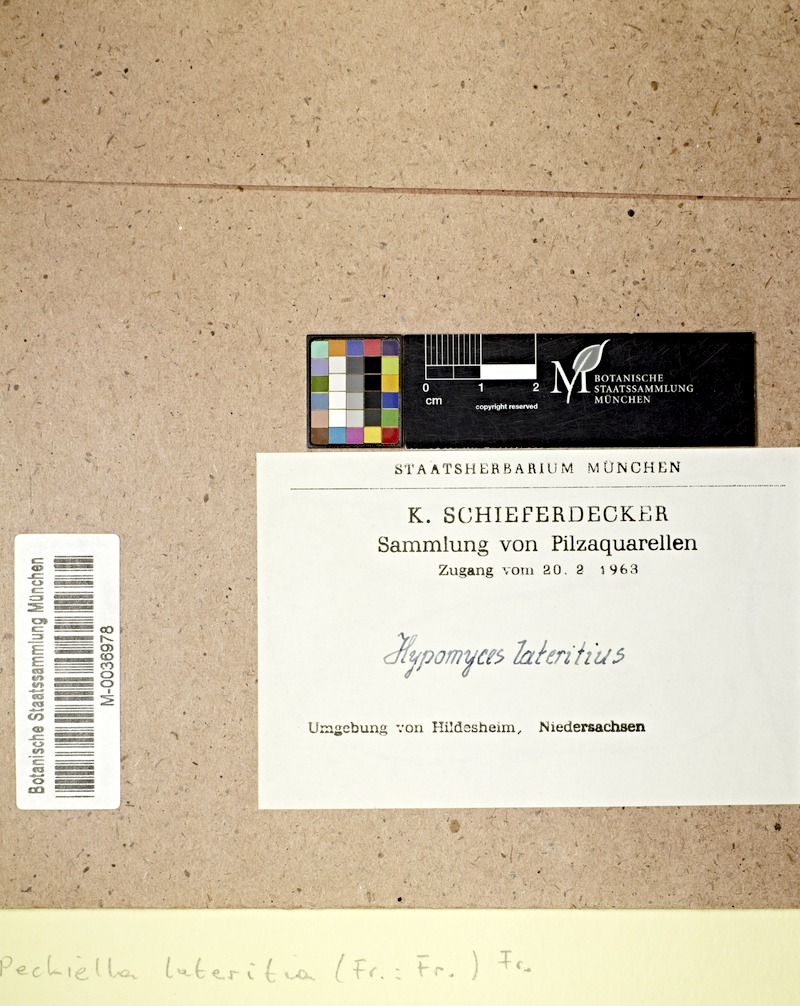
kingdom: Fungi
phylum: Ascomycota
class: Sordariomycetes
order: Hypocreales
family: Hypocreaceae
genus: Hypomyces
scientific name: Hypomyces lateritius
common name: Ochre gillgobbler
